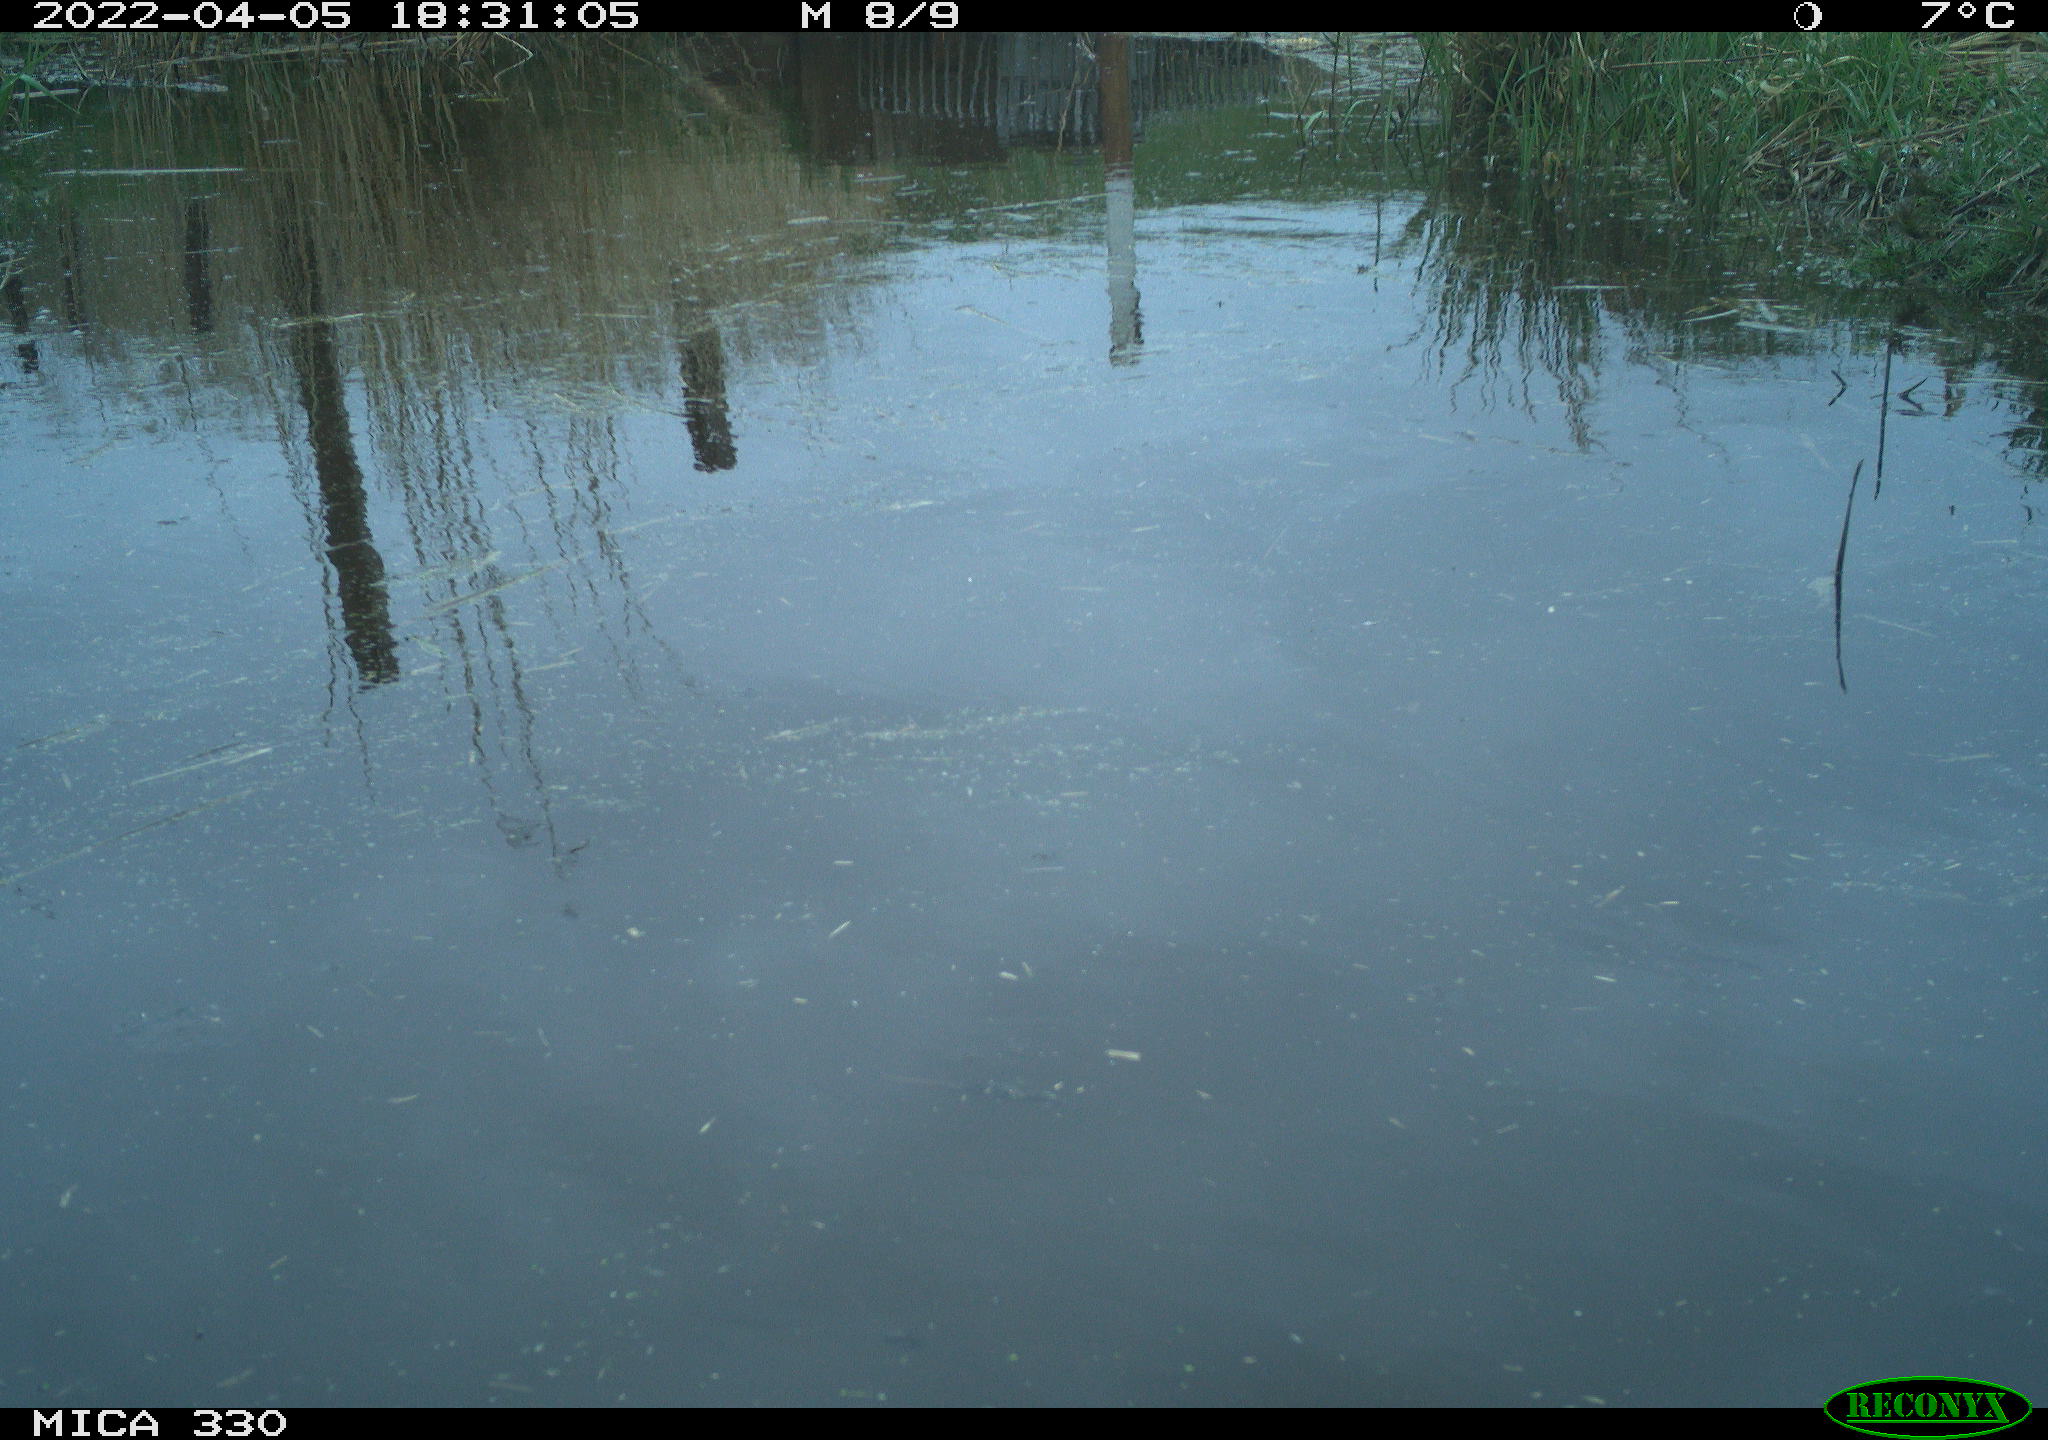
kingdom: Animalia
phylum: Chordata
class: Aves
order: Gruiformes
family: Rallidae
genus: Gallinula
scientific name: Gallinula chloropus
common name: Common moorhen
